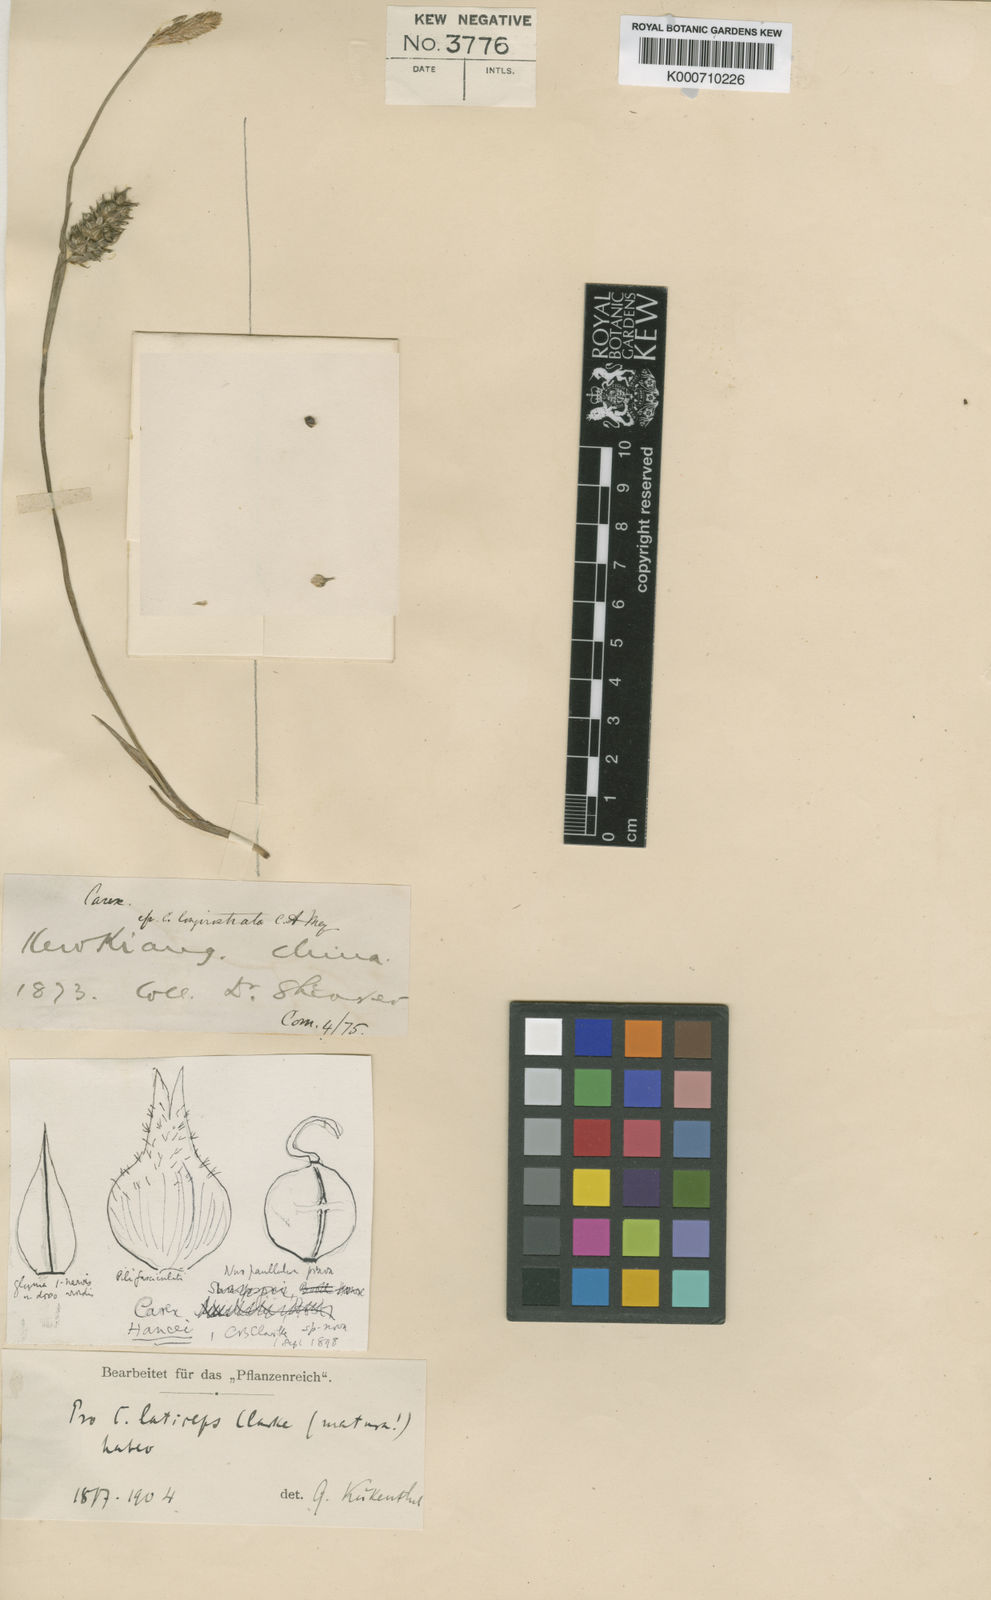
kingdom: Plantae
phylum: Tracheophyta
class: Liliopsida
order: Poales
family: Cyperaceae
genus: Carex
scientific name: Carex sampsonii
